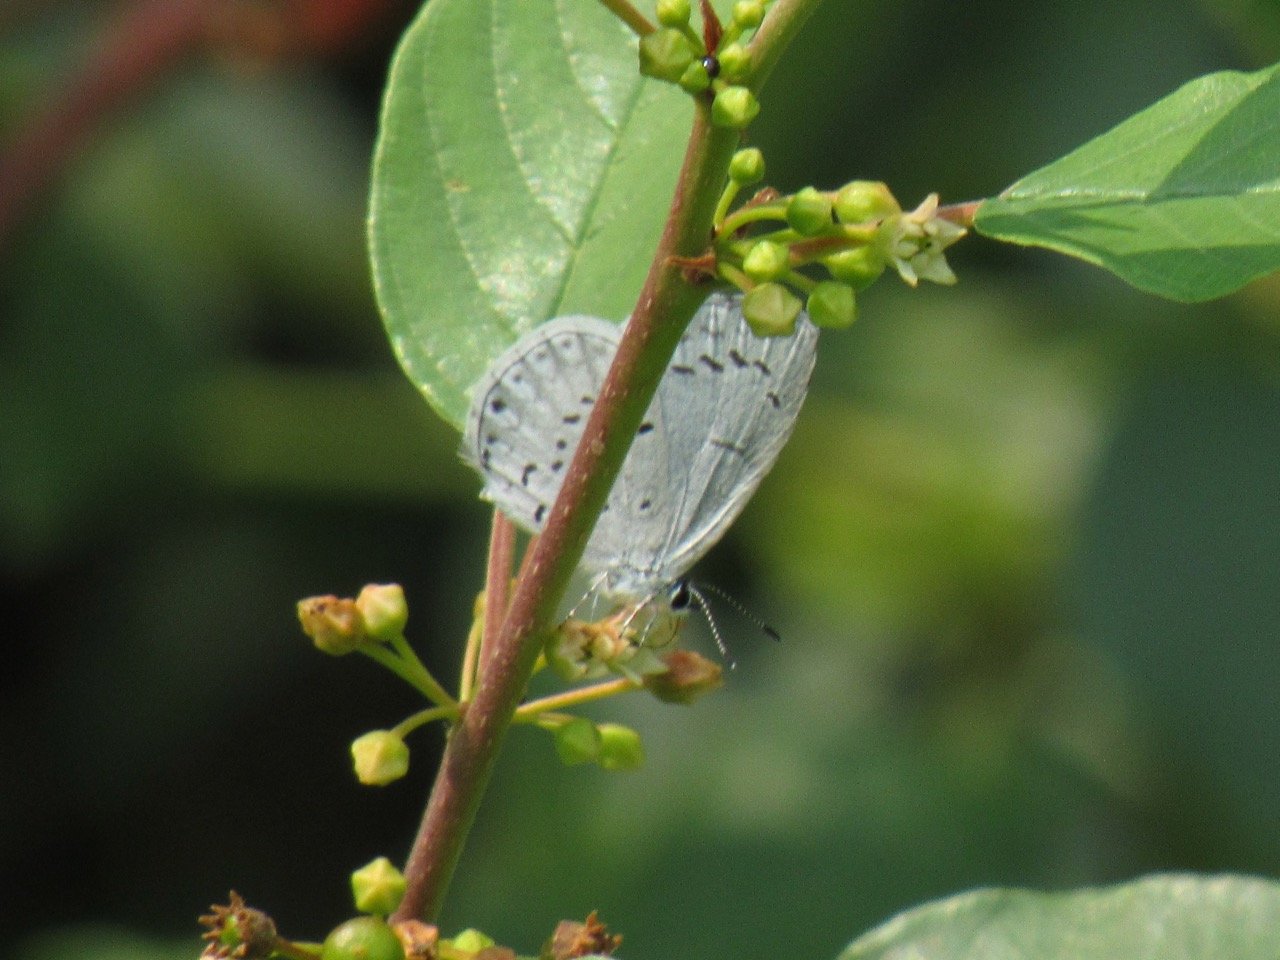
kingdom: Animalia
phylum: Arthropoda
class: Insecta
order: Lepidoptera
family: Lycaenidae
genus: Celastrina
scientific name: Celastrina
